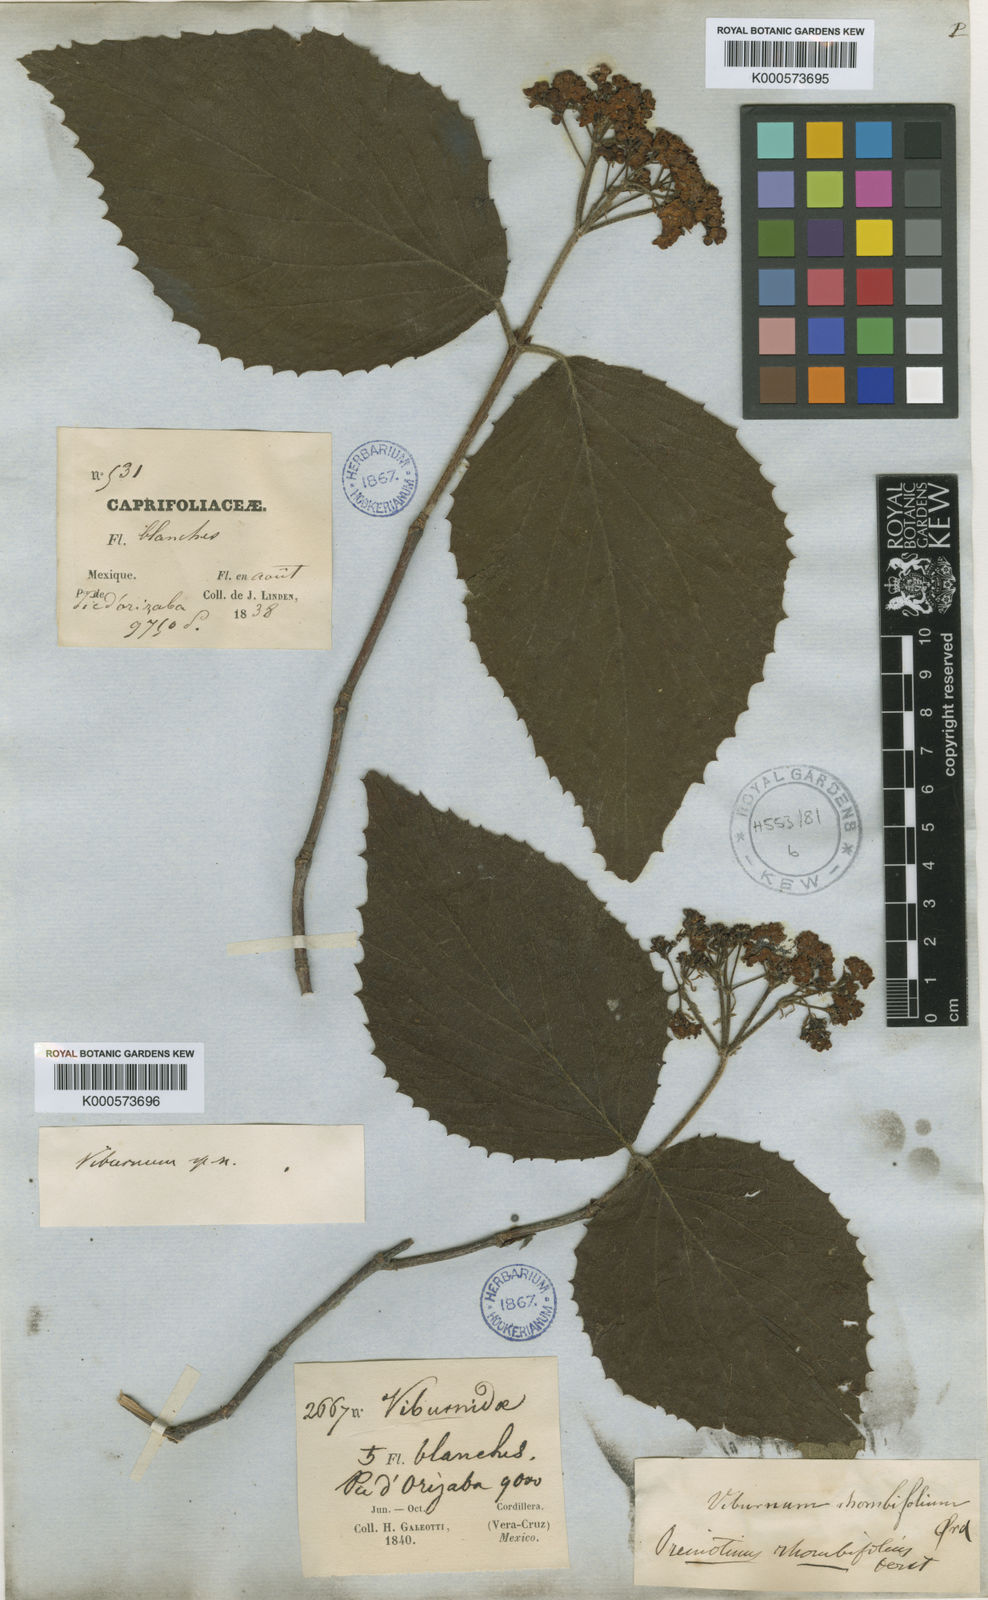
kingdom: Plantae
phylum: Tracheophyta
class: Magnoliopsida
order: Dipsacales
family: Viburnaceae
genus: Viburnum
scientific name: Viburnum tiliifolium
